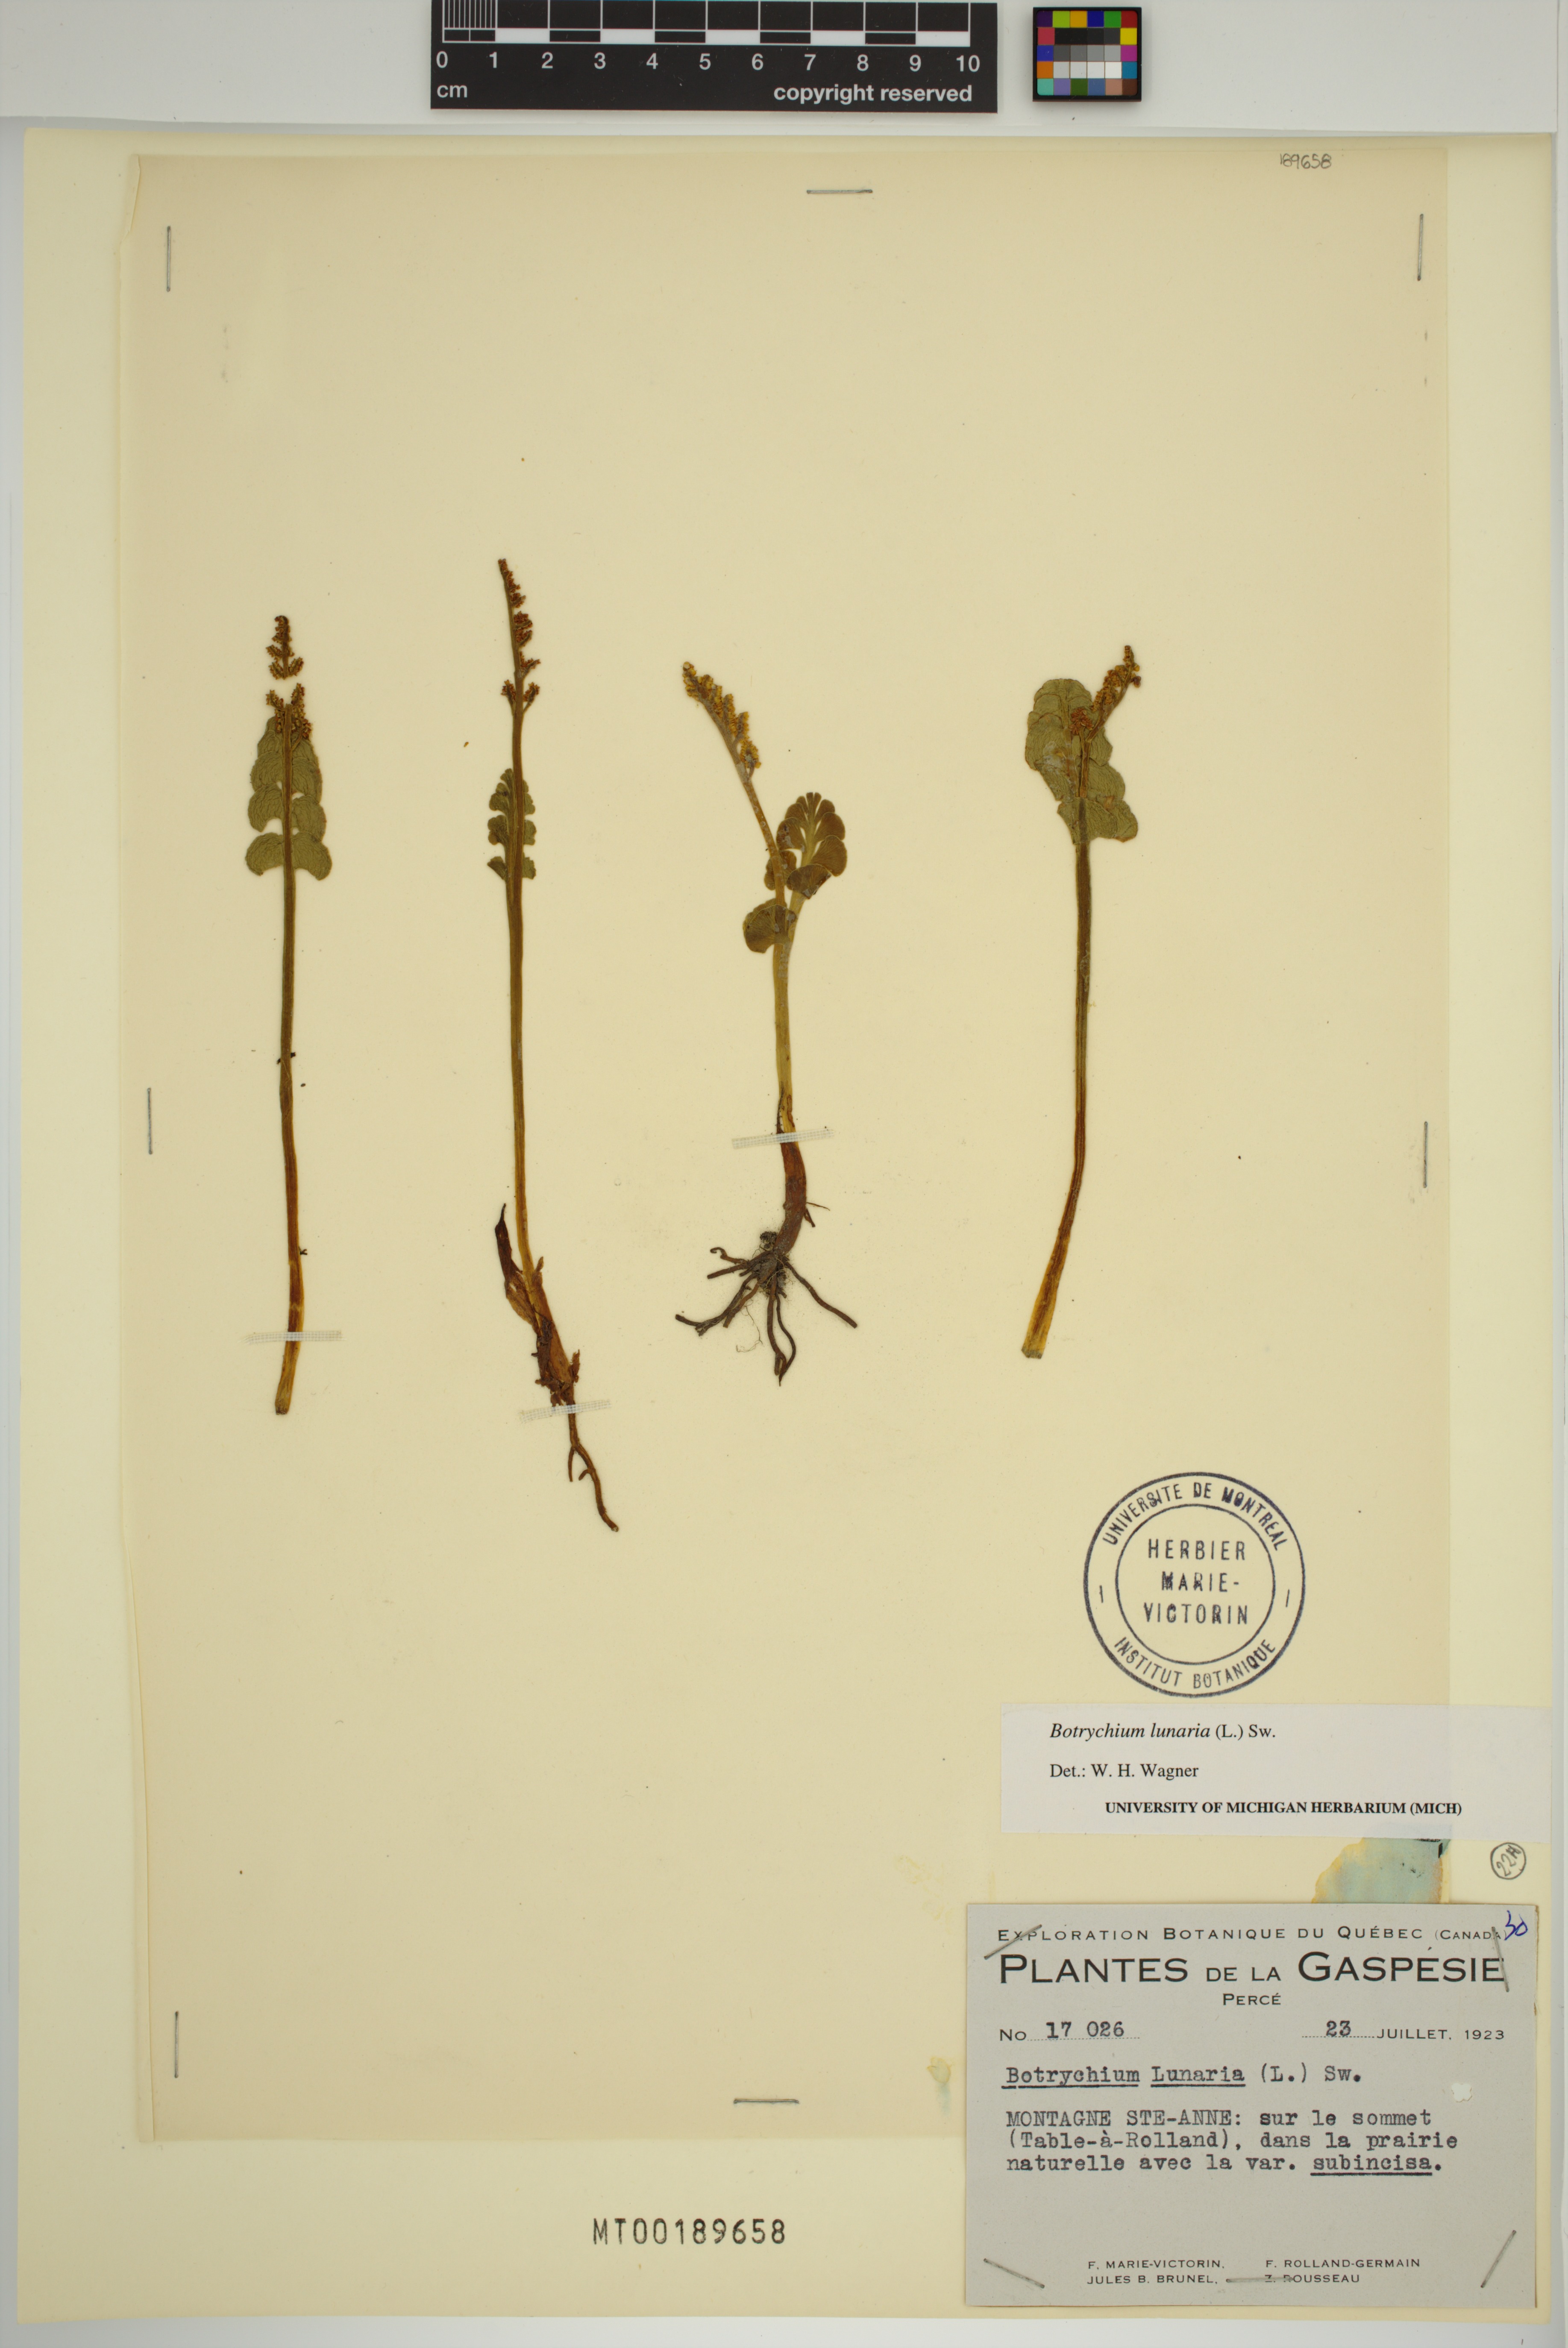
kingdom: Plantae
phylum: Tracheophyta
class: Polypodiopsida
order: Ophioglossales
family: Ophioglossaceae
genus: Botrychium
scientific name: Botrychium lunaria
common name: Moonwort
